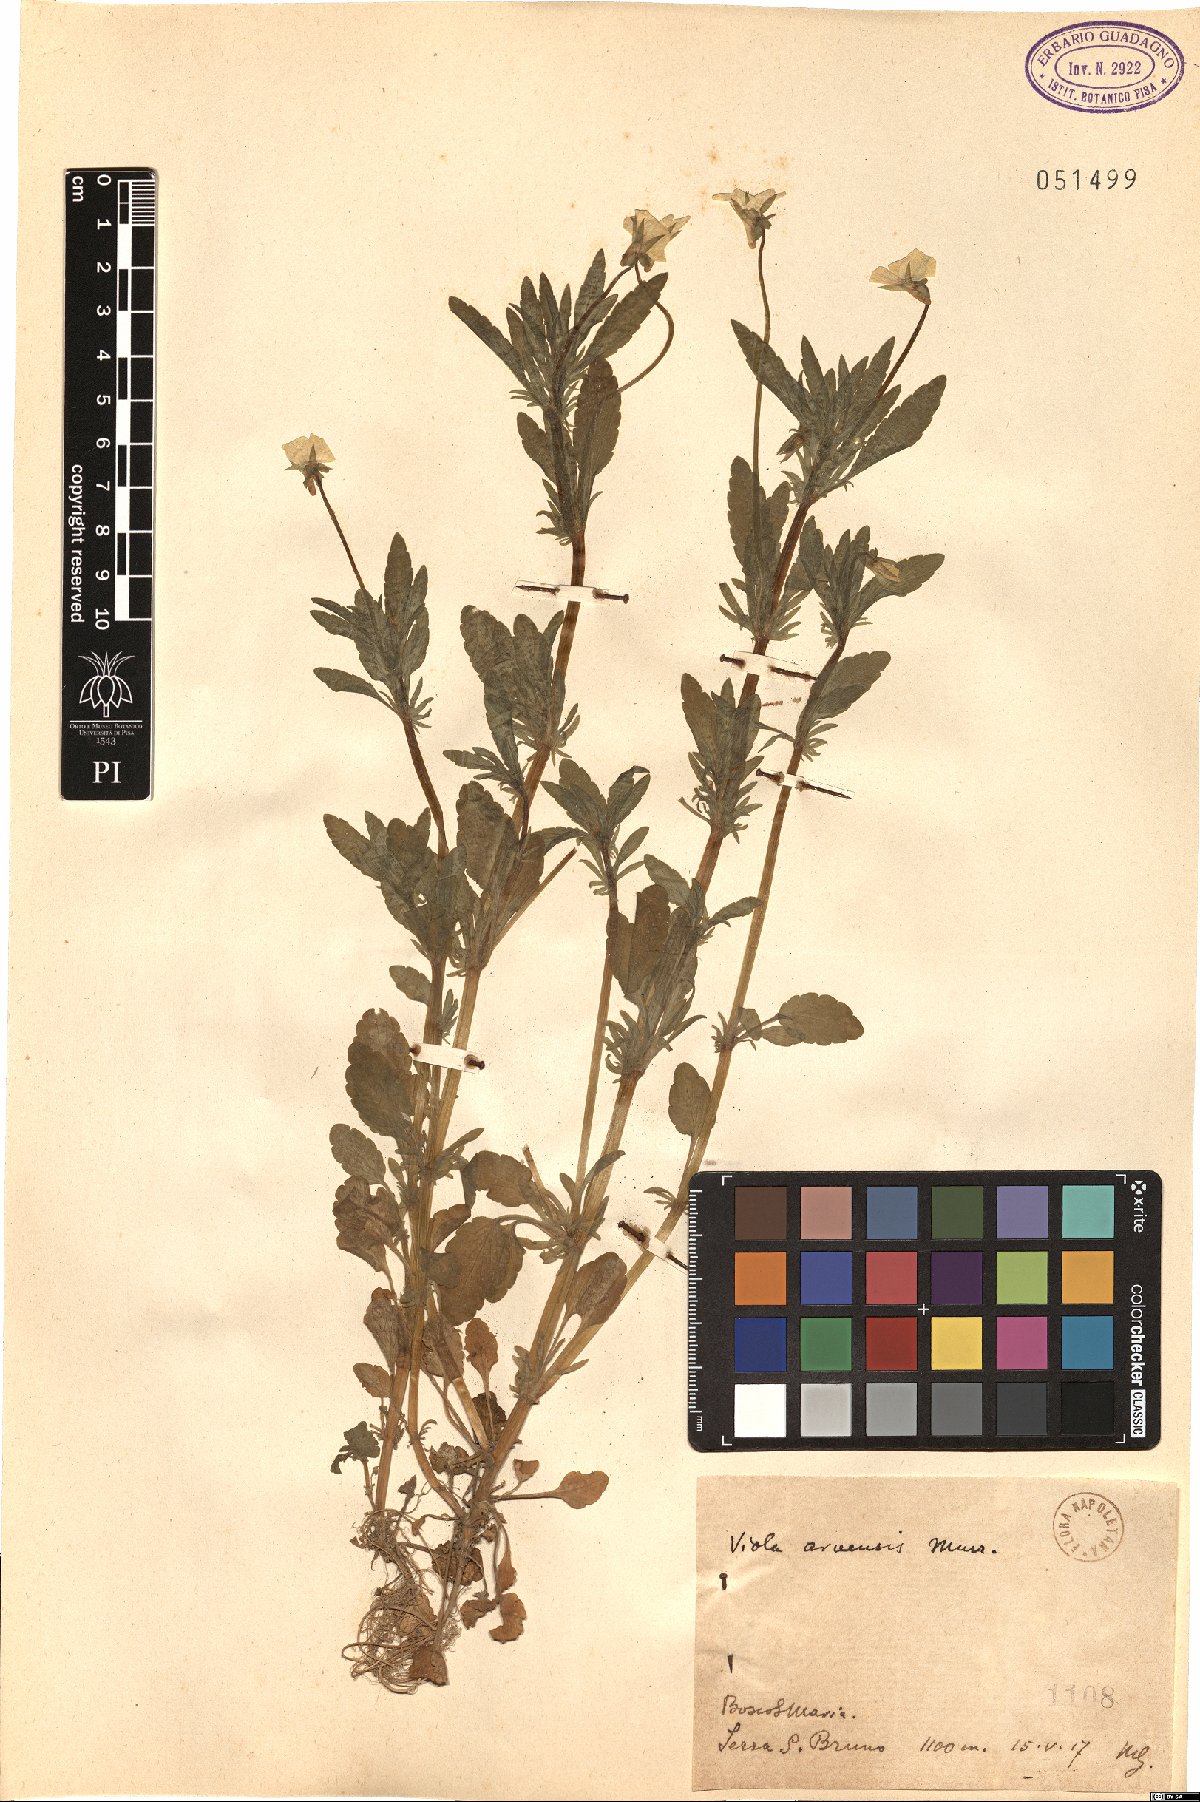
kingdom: Plantae
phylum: Tracheophyta
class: Magnoliopsida
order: Malpighiales
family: Violaceae
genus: Viola
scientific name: Viola arvensis
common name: Field pansy
